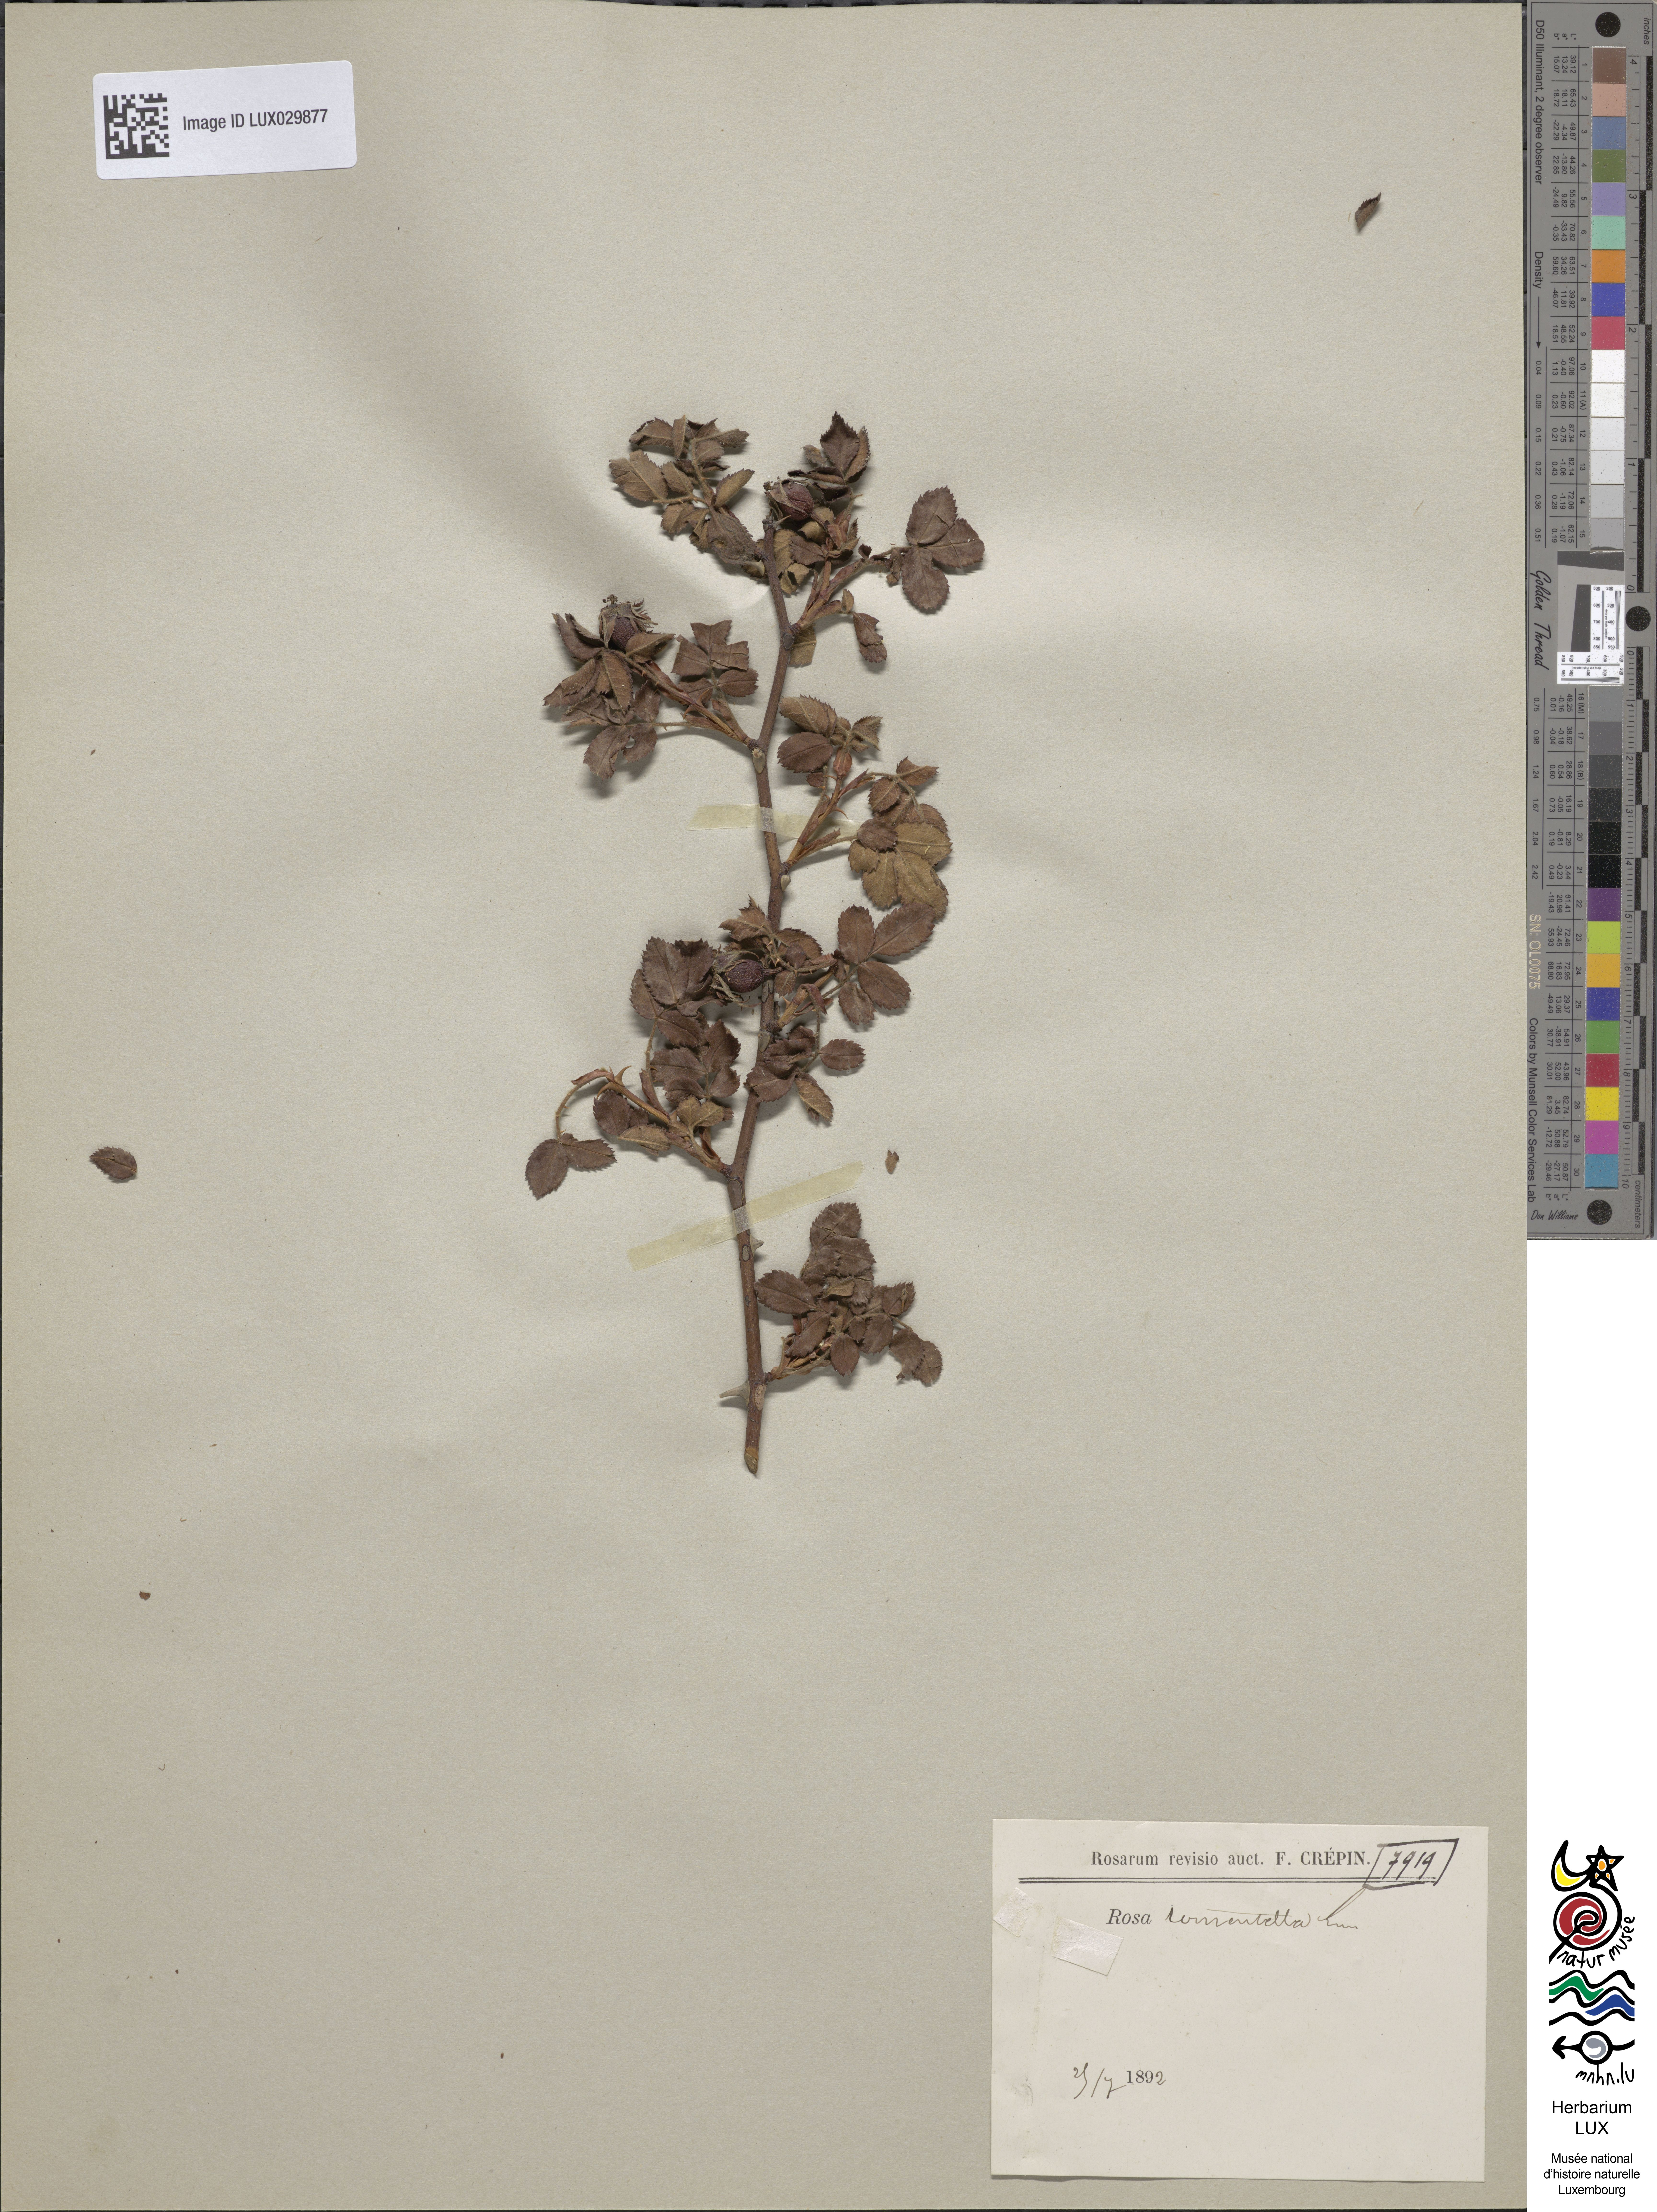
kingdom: Plantae
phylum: Tracheophyta
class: Magnoliopsida
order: Rosales
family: Rosaceae
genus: Rosa
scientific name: Rosa balsamica
